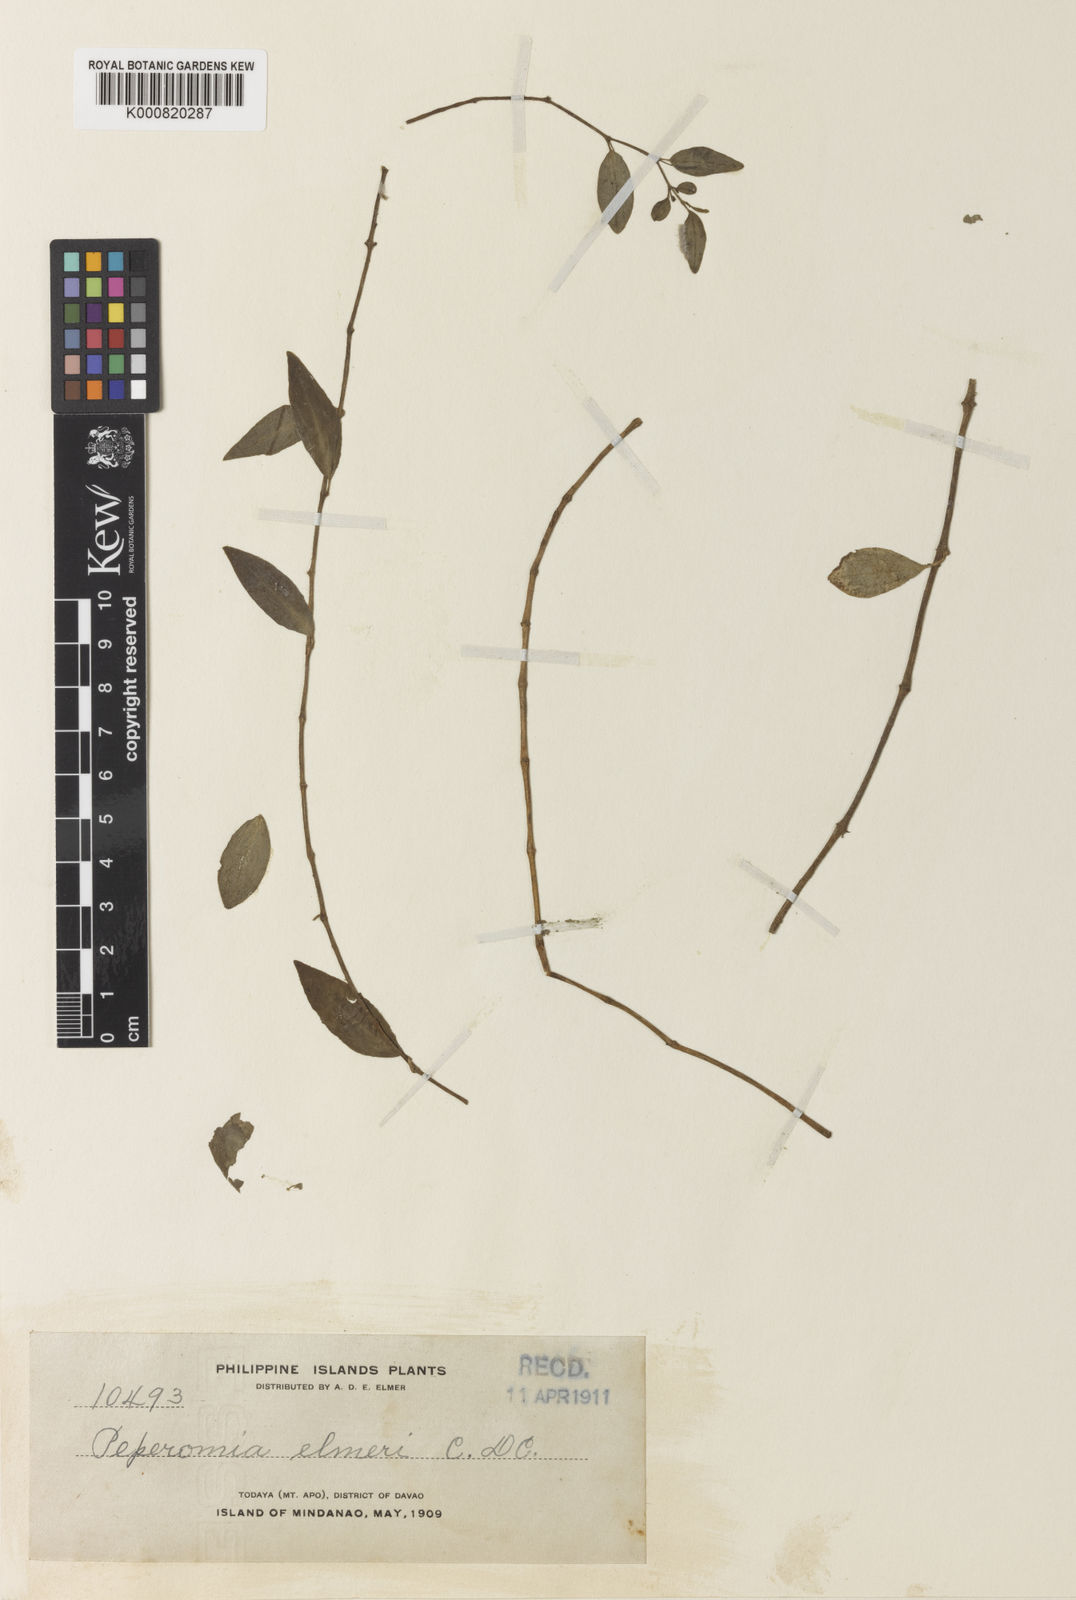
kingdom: Plantae
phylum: Tracheophyta
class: Magnoliopsida
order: Piperales
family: Piperaceae
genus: Peperomia
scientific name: Peperomia elmeri
